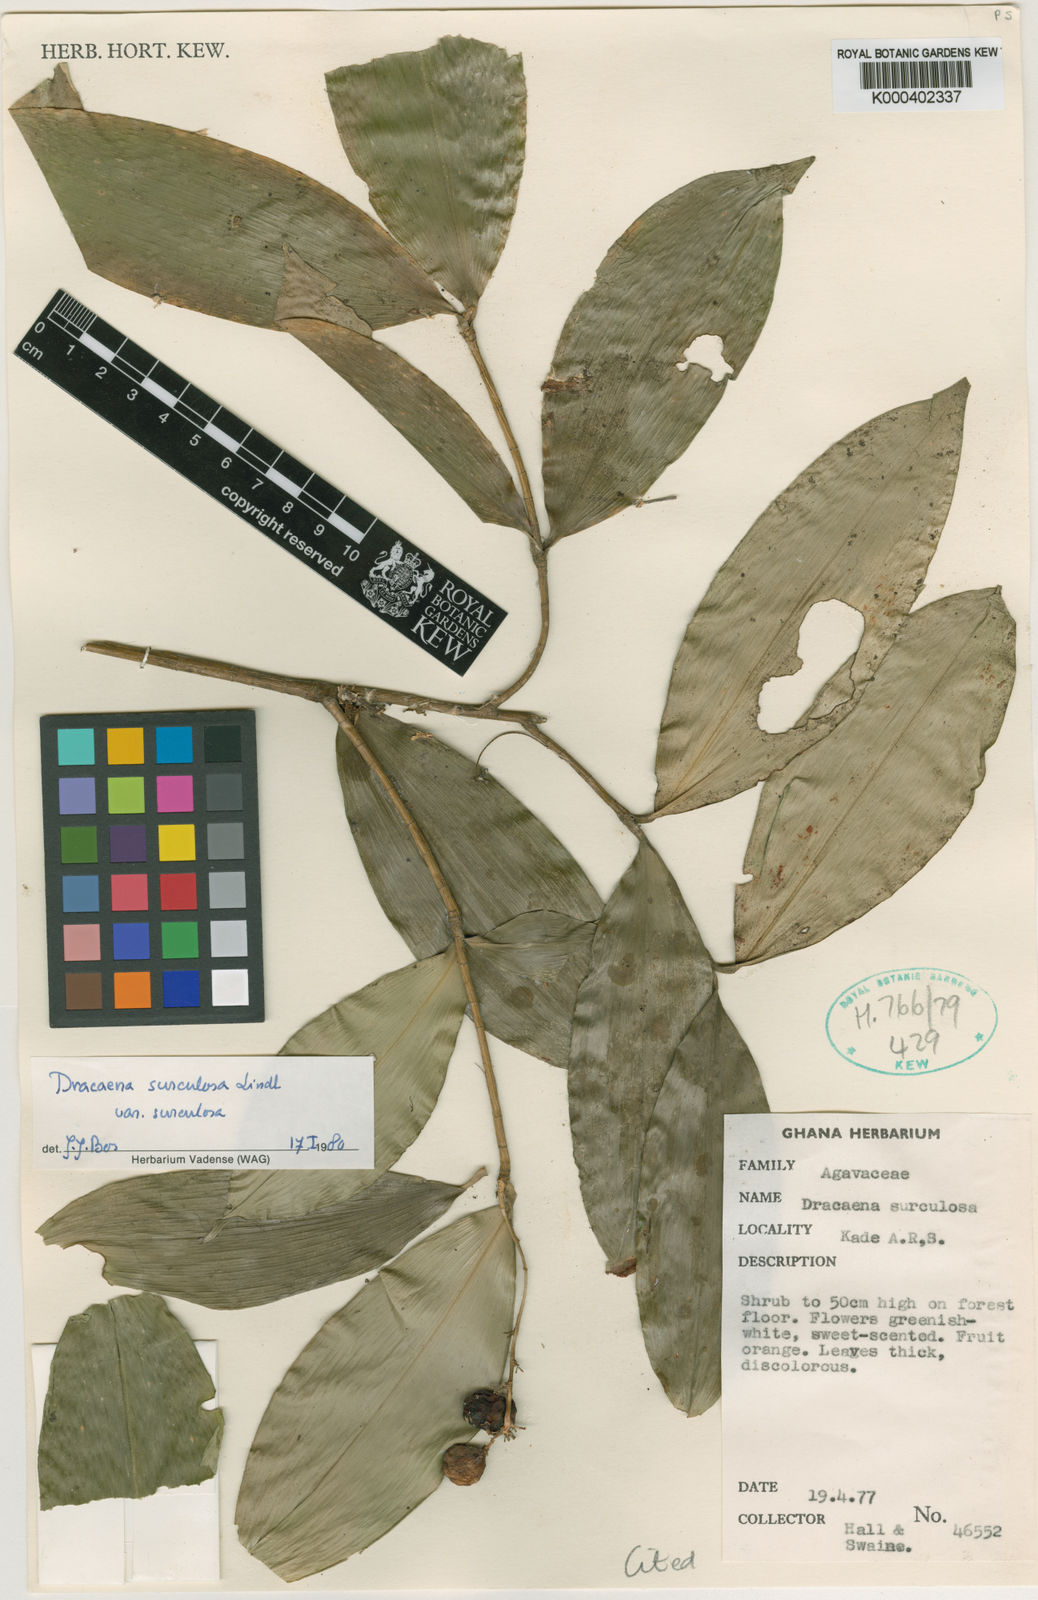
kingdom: Plantae
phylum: Tracheophyta
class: Liliopsida
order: Asparagales
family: Asparagaceae
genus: Dracaena
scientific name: Dracaena surculosa
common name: Spotted dracaena
